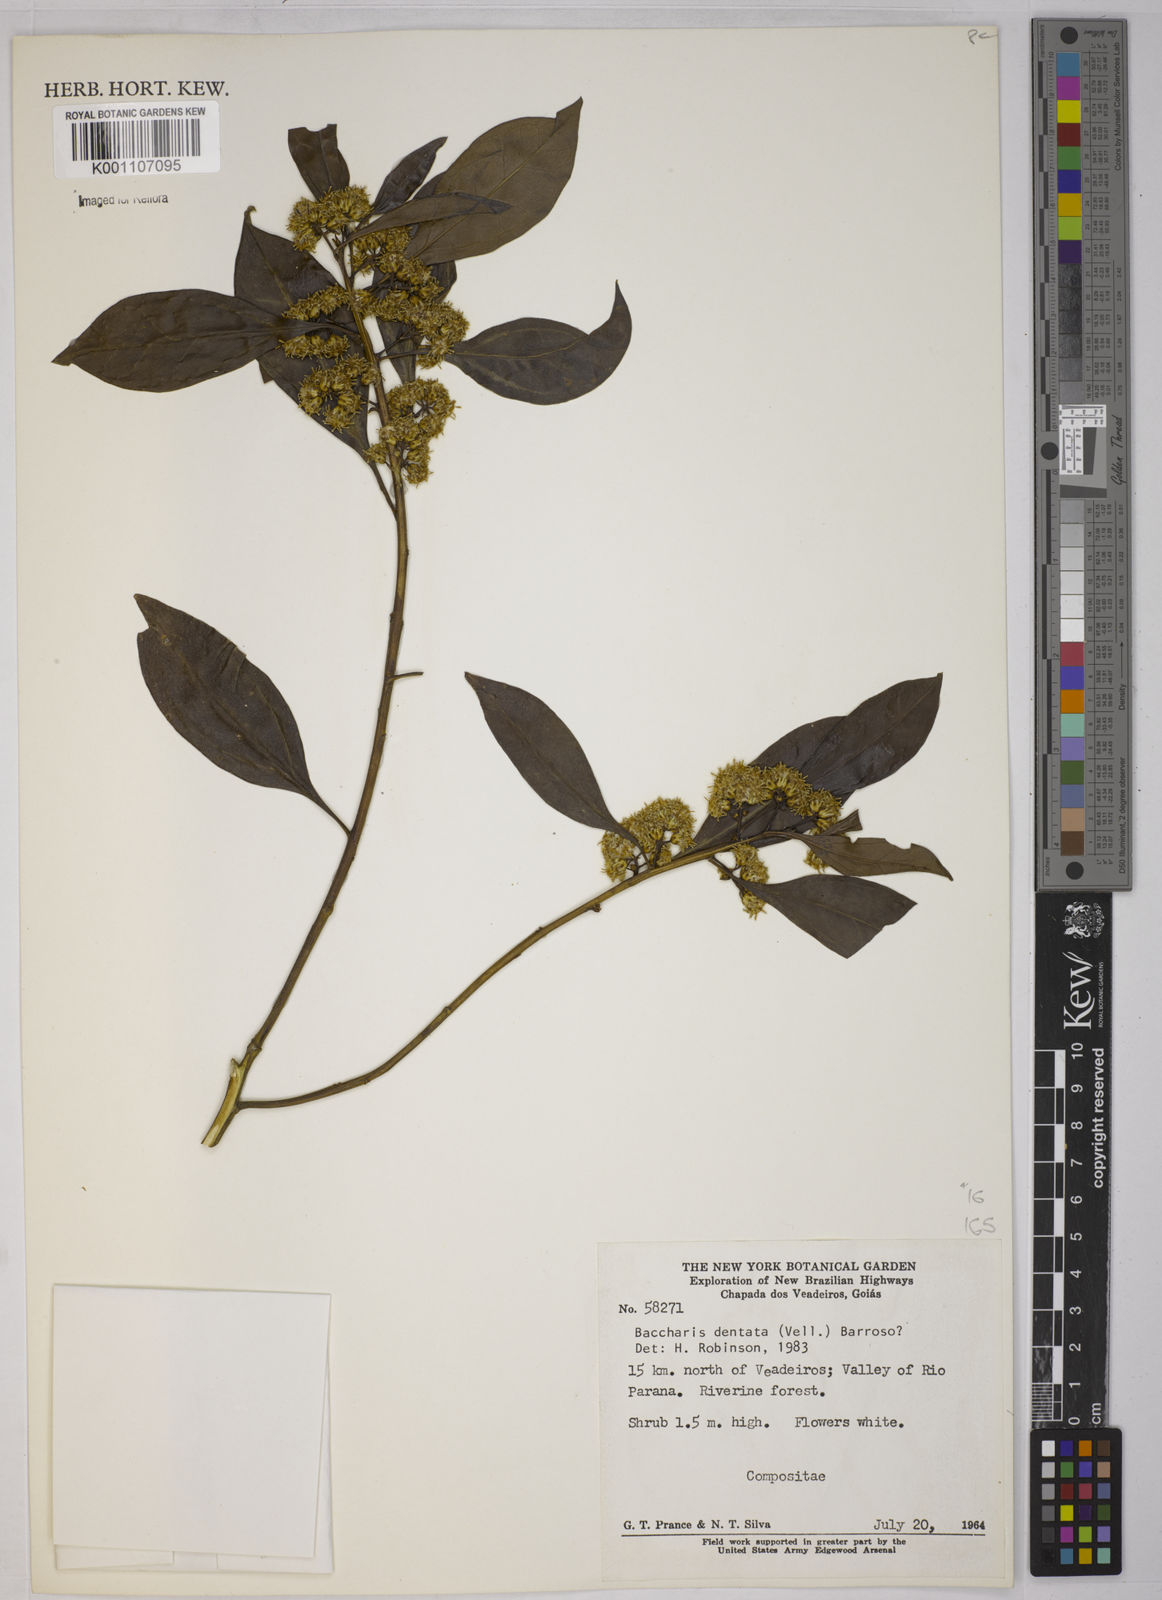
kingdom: Plantae
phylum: Tracheophyta
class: Magnoliopsida
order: Asterales
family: Asteraceae
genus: Baccharis
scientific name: Baccharis dentata
